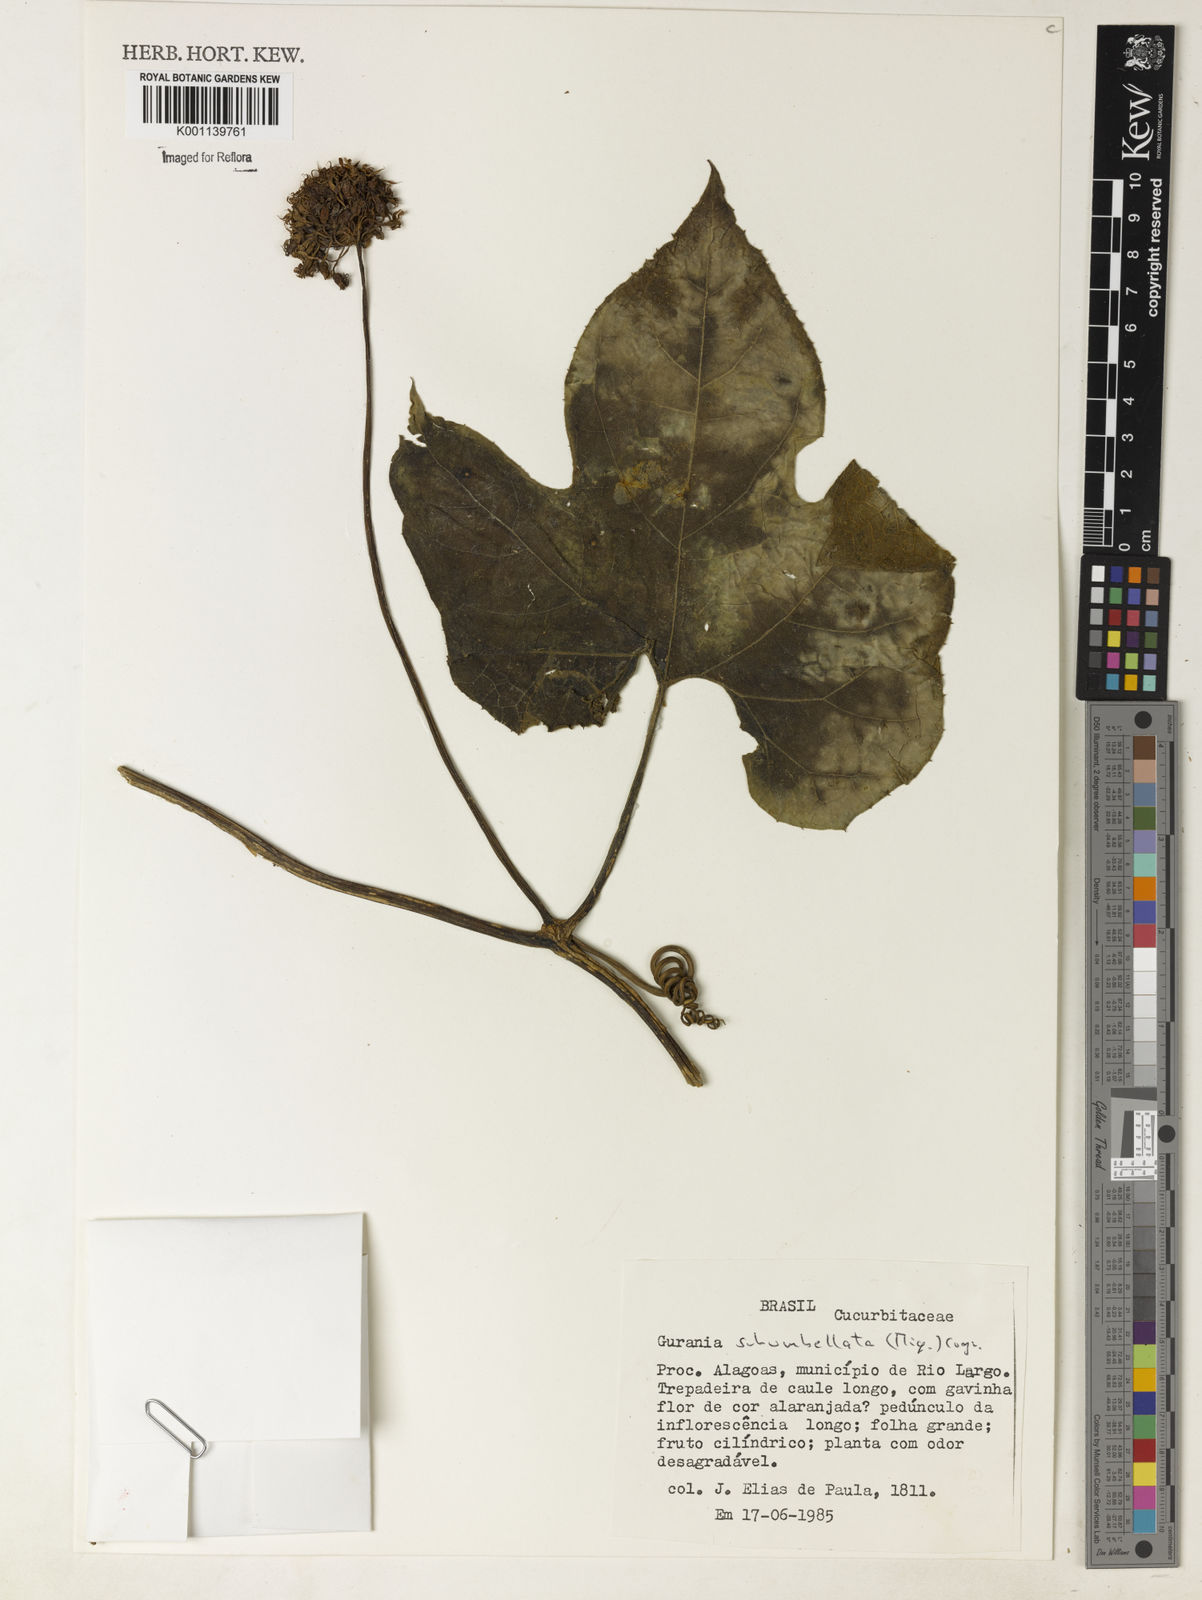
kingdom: Plantae
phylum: Tracheophyta
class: Magnoliopsida
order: Cucurbitales
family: Cucurbitaceae
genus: Gurania
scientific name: Gurania subumbellata
